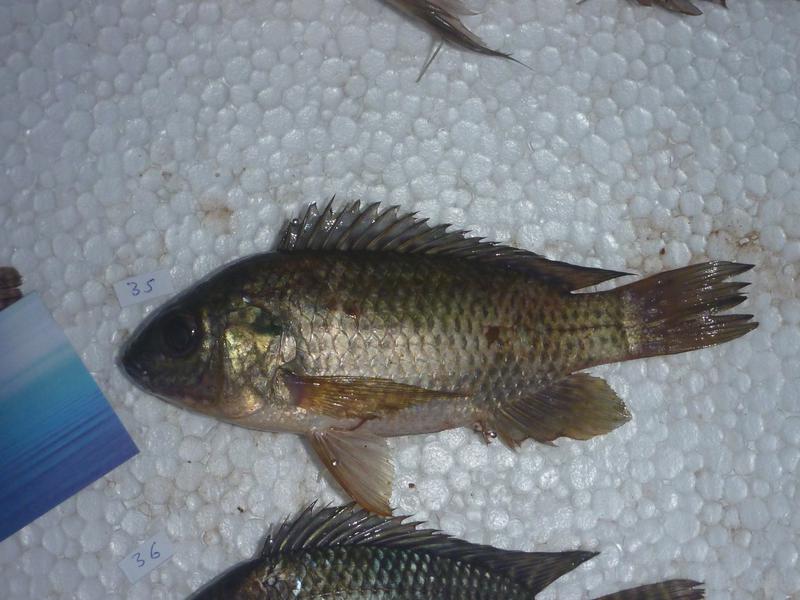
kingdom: Animalia
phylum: Chordata
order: Perciformes
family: Cichlidae
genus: Oreochromis
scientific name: Oreochromis leucostictus
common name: Blue spotted tilapia
